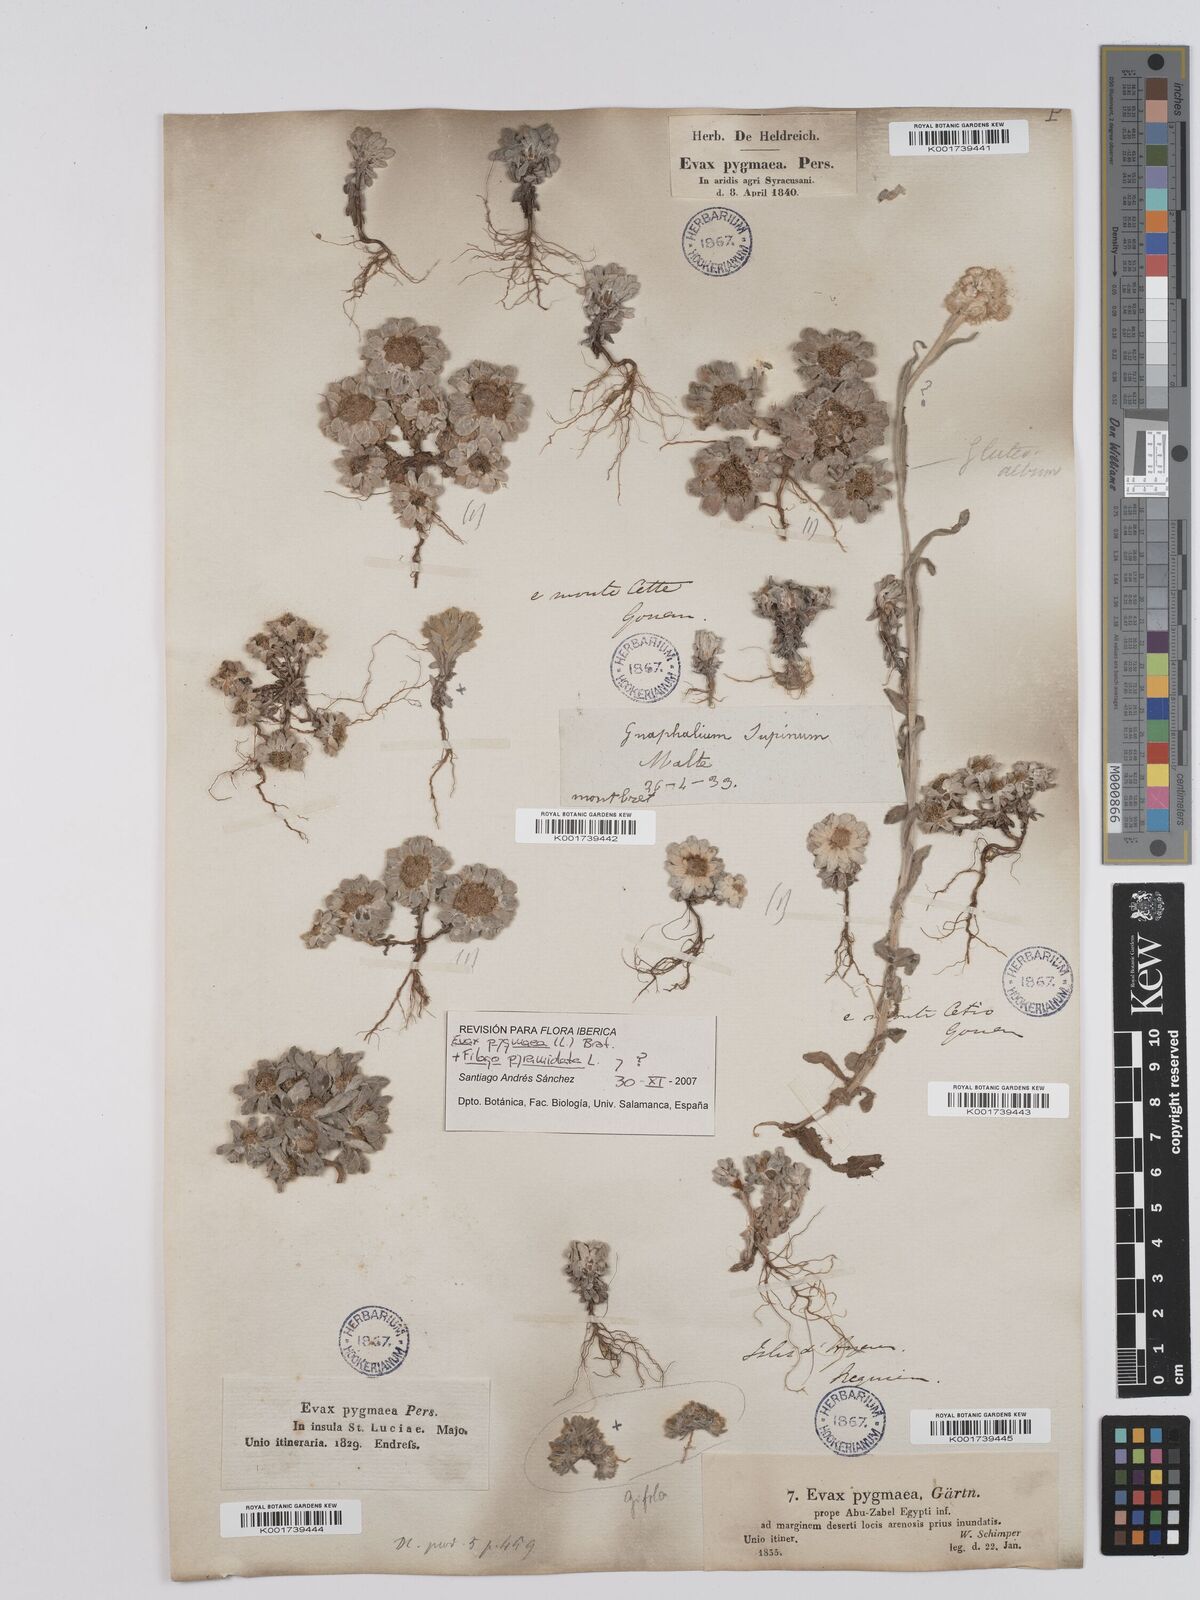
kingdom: Plantae
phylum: Tracheophyta
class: Magnoliopsida
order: Asterales
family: Asteraceae
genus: Filago
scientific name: Filago pygmaea
